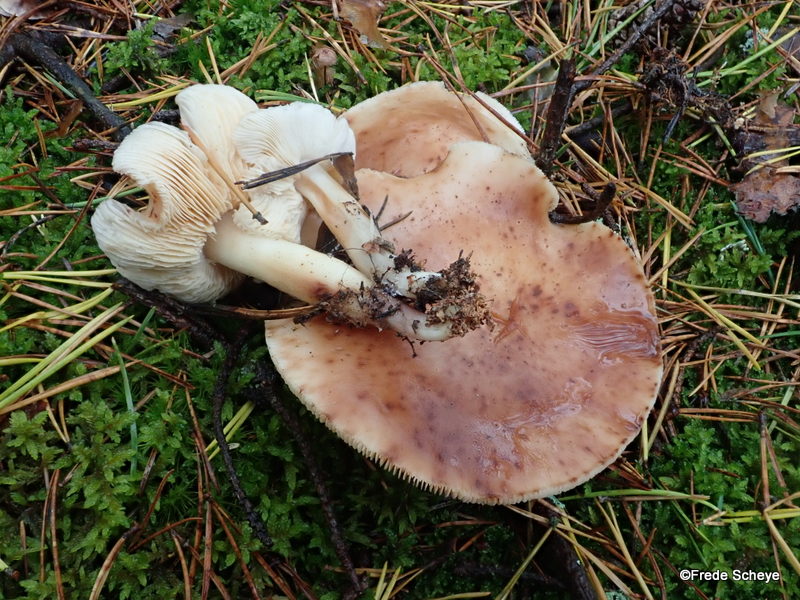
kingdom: Fungi
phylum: Basidiomycota
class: Agaricomycetes
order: Agaricales
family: Omphalotaceae
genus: Rhodocollybia
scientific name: Rhodocollybia maculata
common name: plettet fladhat
